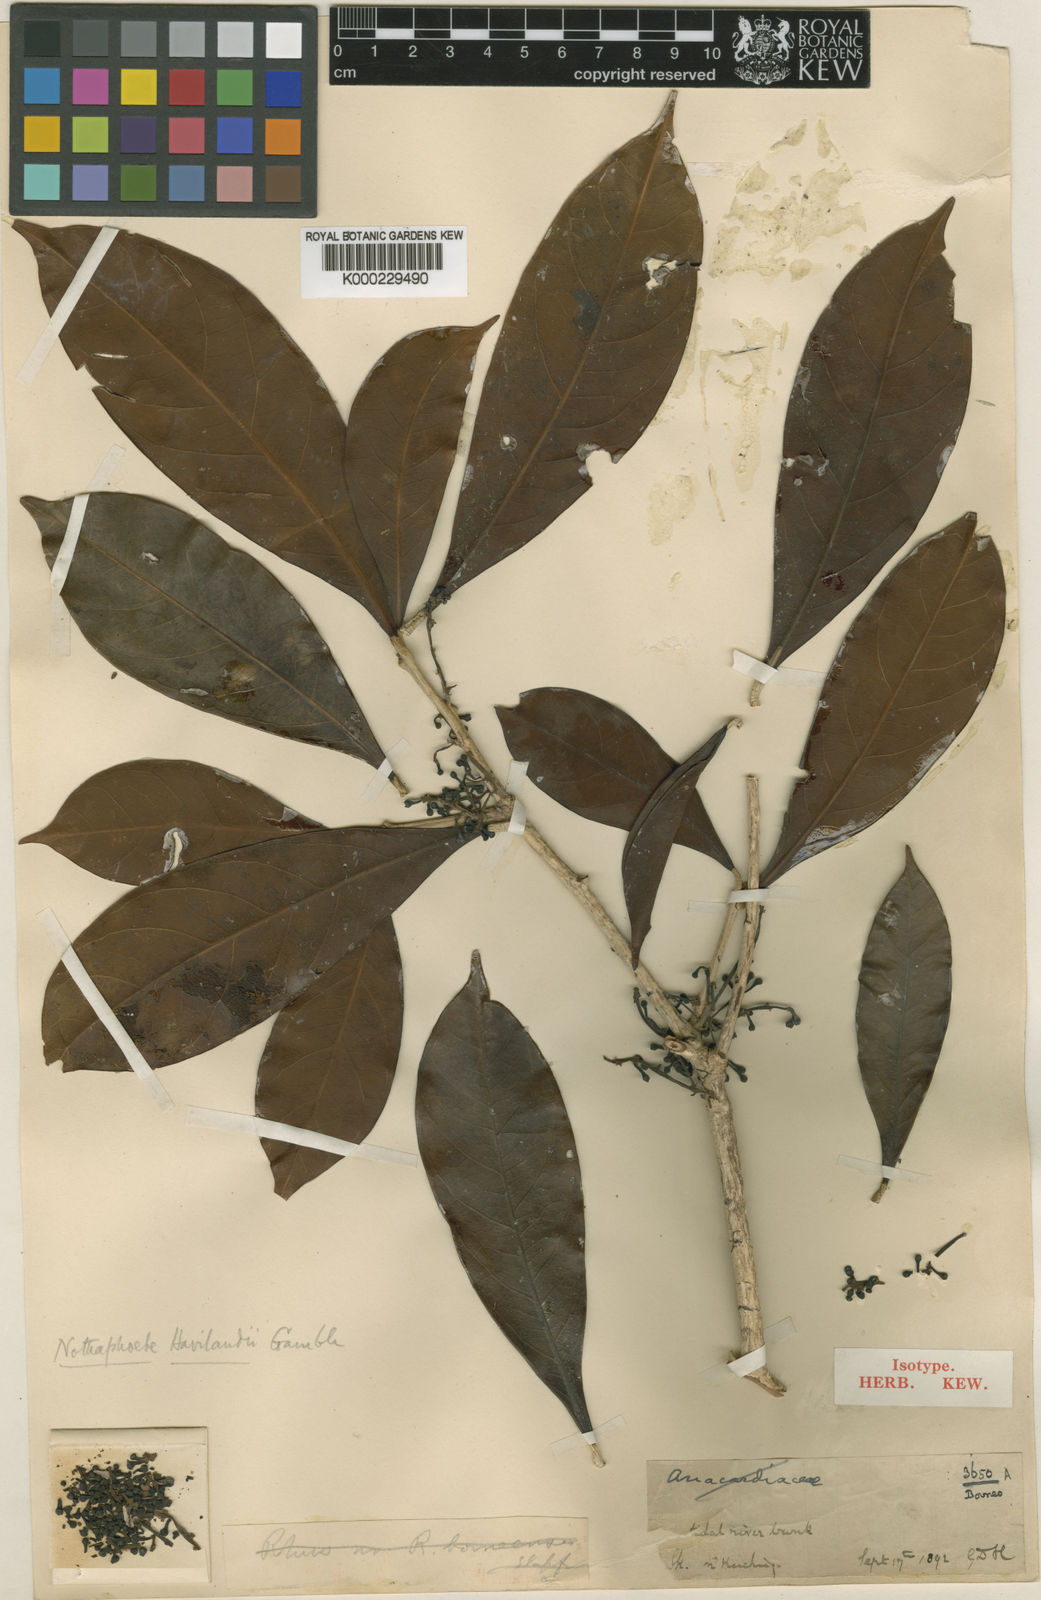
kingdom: Plantae
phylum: Tracheophyta
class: Magnoliopsida
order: Laurales
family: Lauraceae
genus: Nothaphoebe
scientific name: Nothaphoebe
